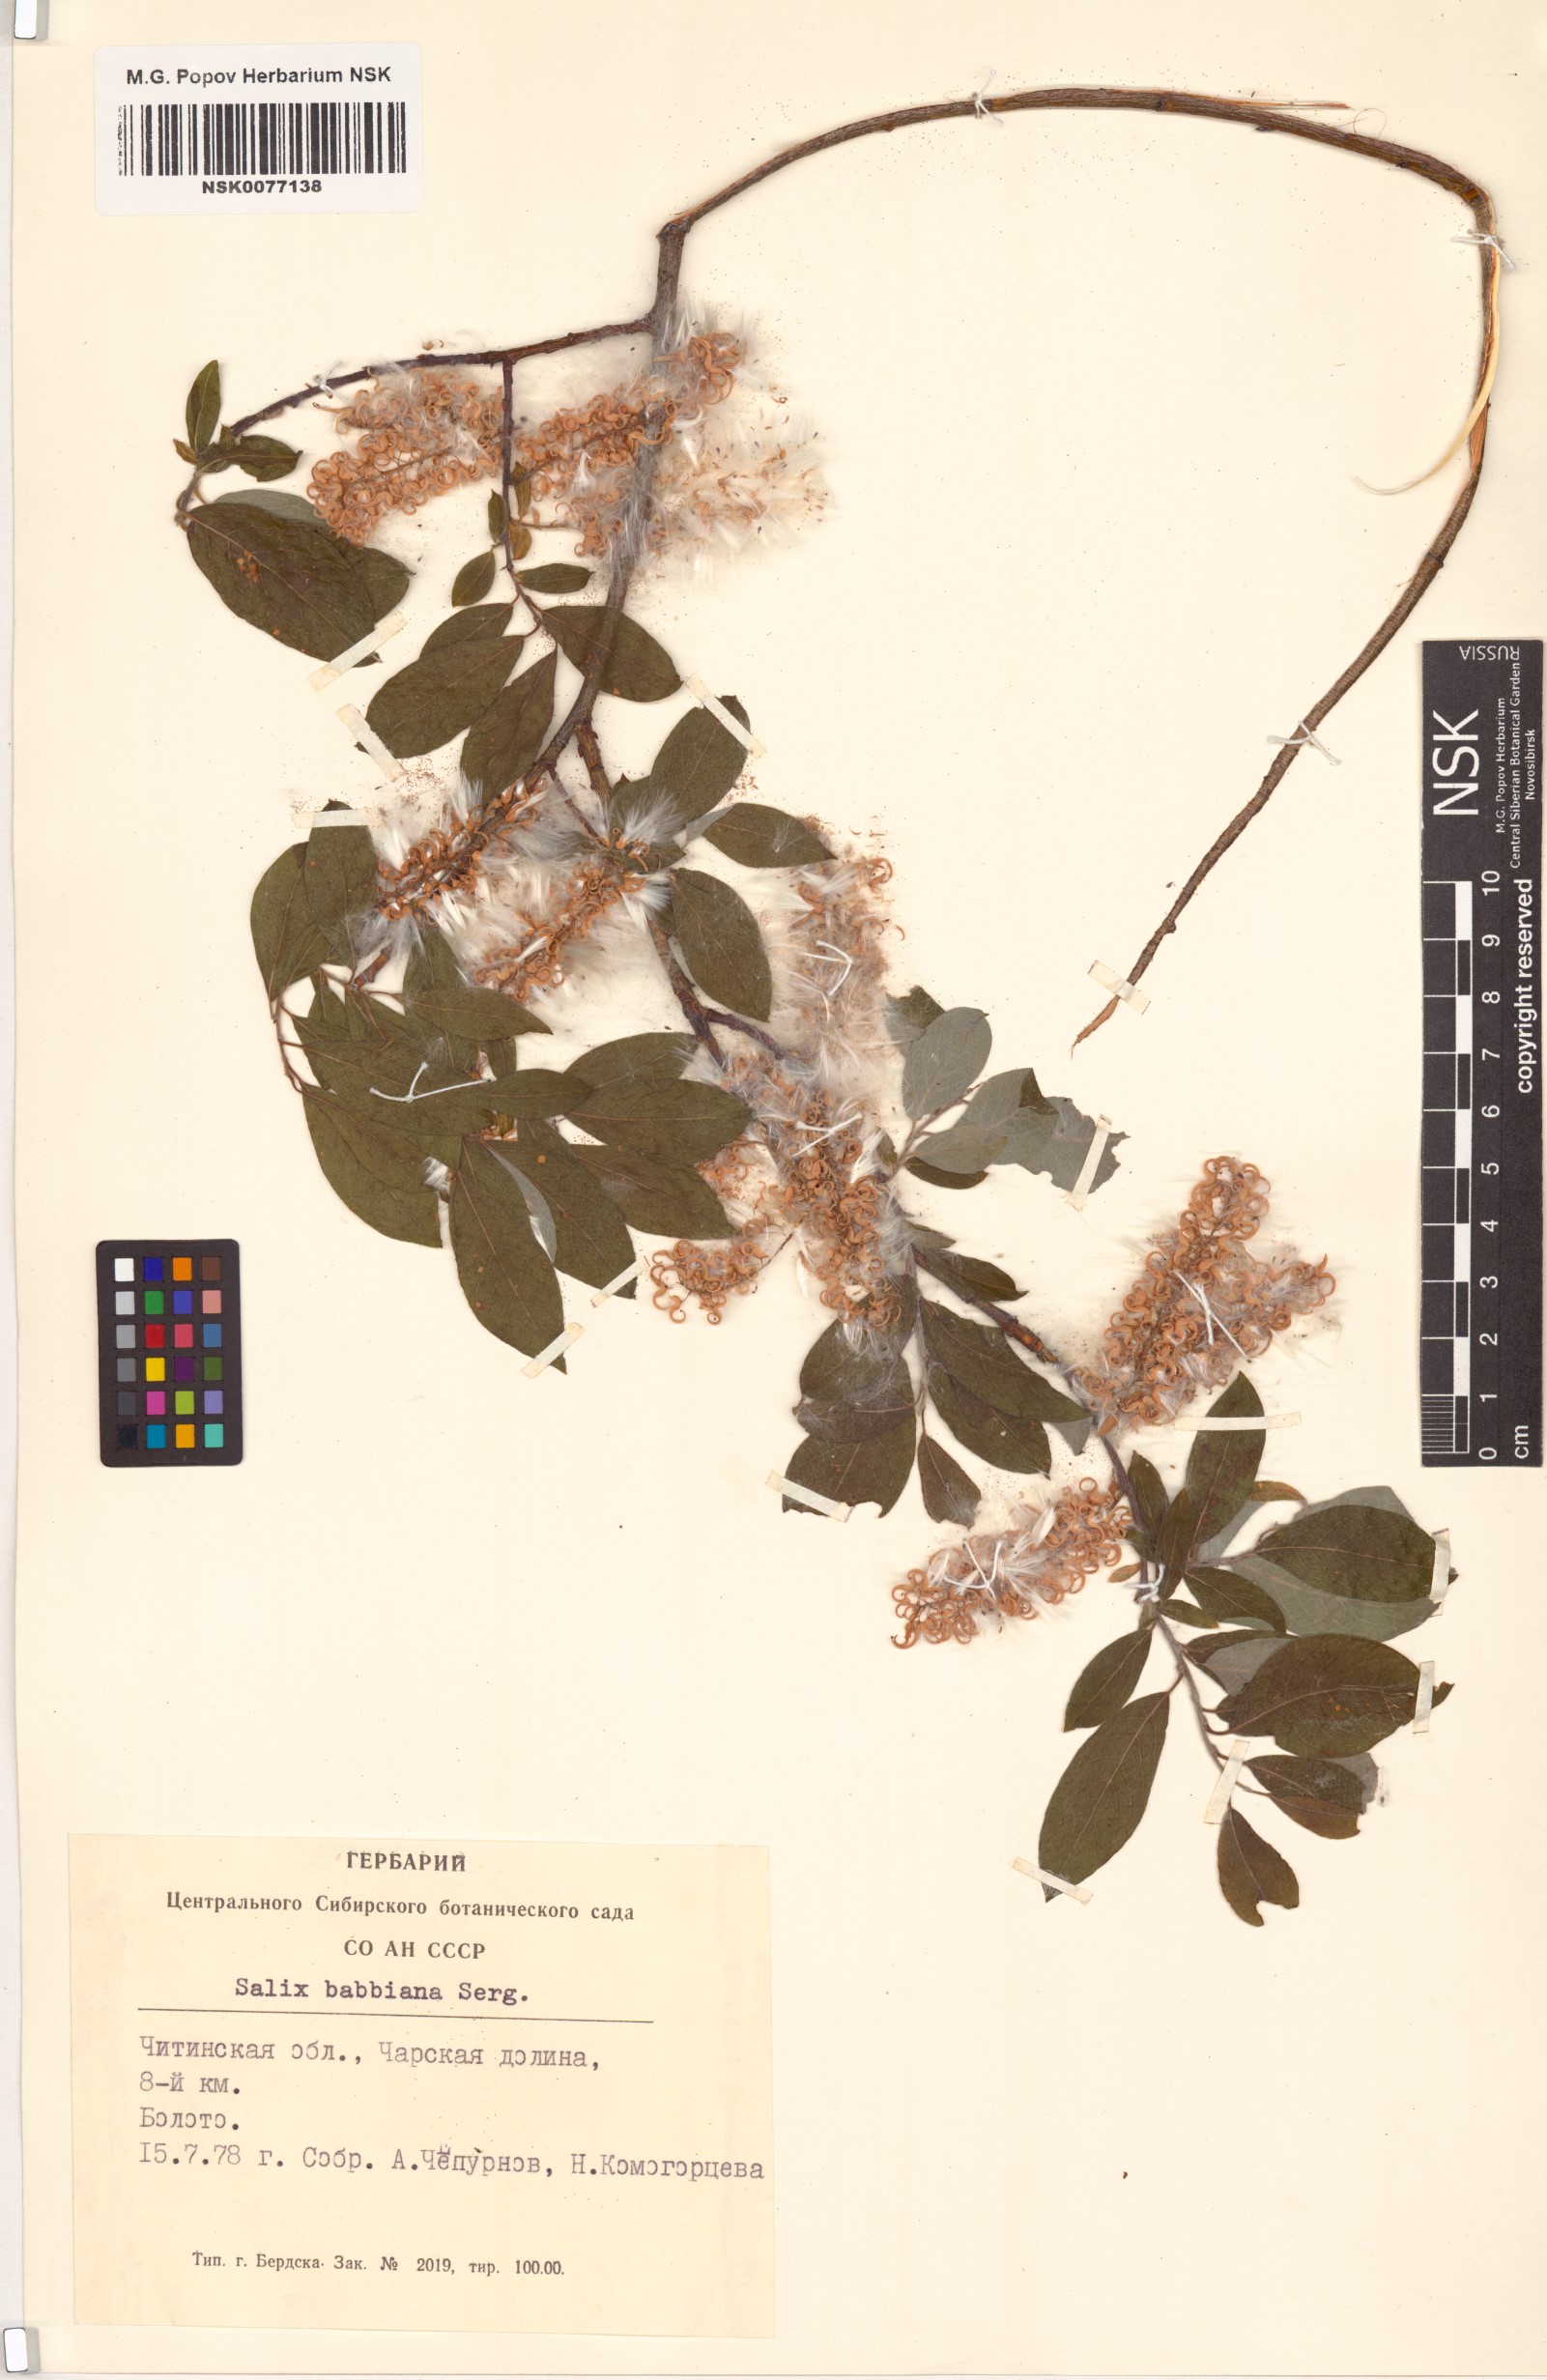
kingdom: Plantae
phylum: Tracheophyta
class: Magnoliopsida
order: Malpighiales
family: Salicaceae
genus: Salix
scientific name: Salix bebbiana
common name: Bebb's willow
